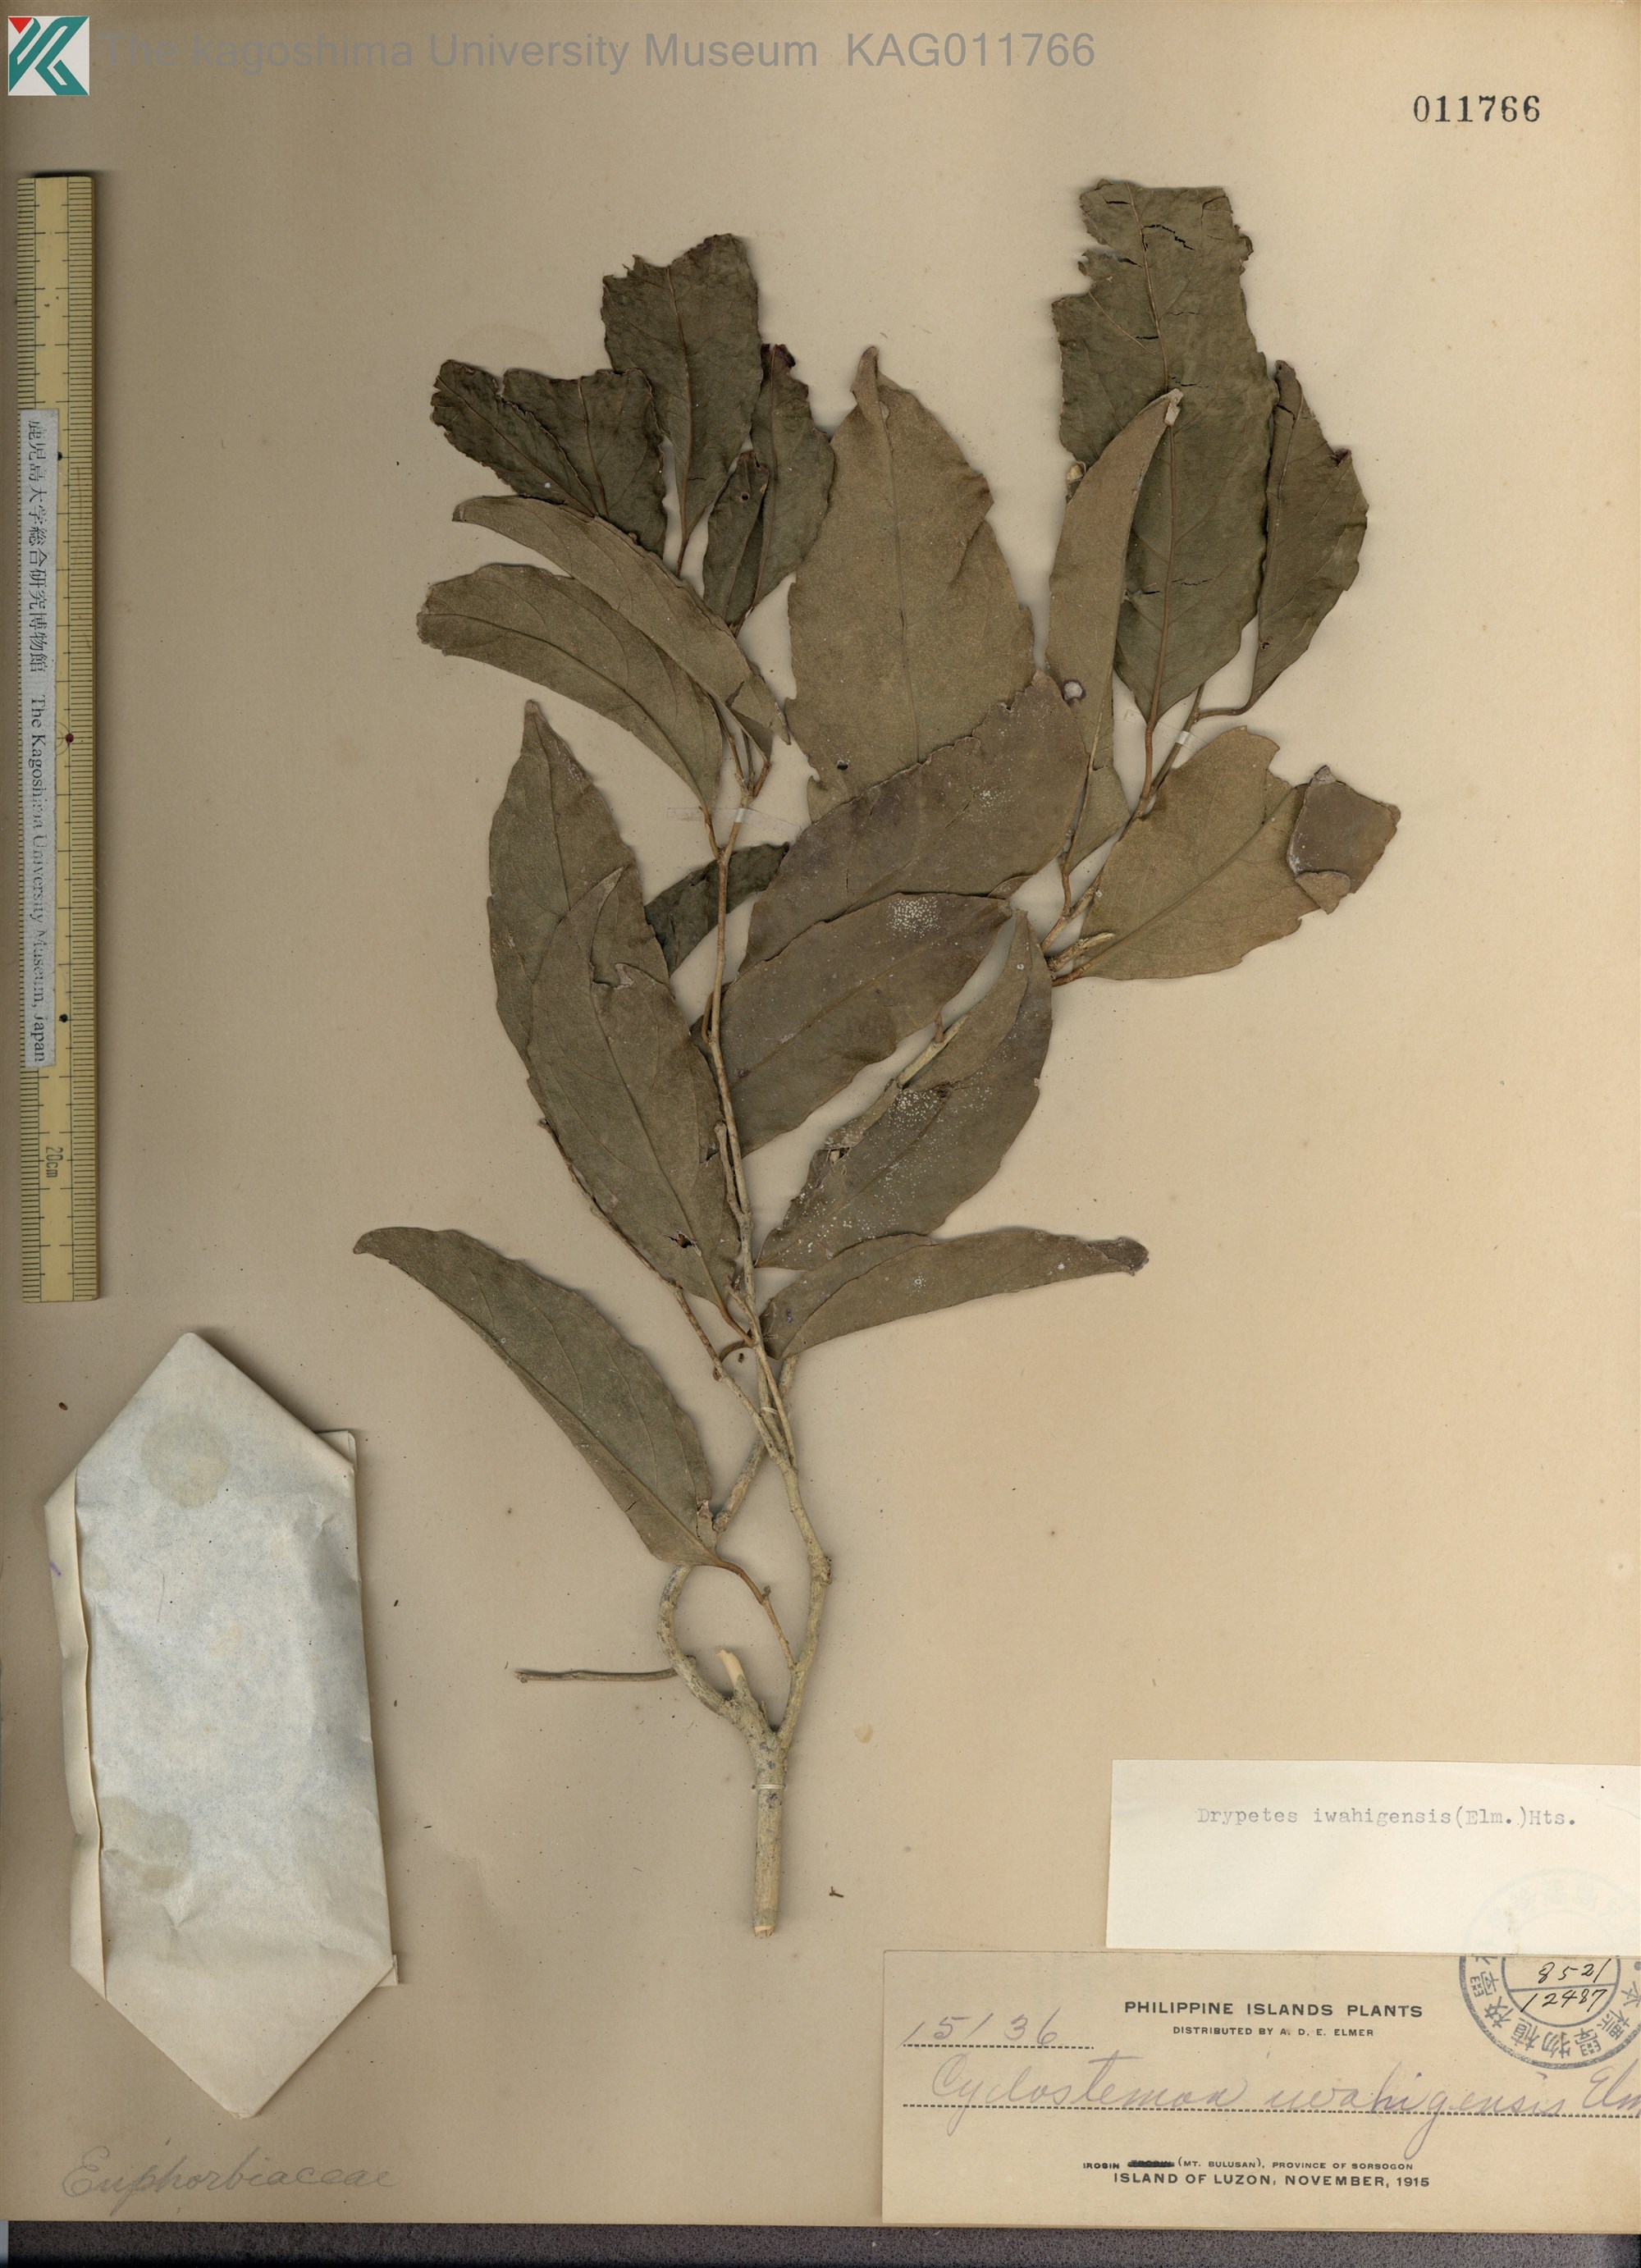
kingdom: Plantae
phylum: Tracheophyta
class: Magnoliopsida
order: Malpighiales
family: Putranjivaceae
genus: Drypetes
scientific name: Drypetes
